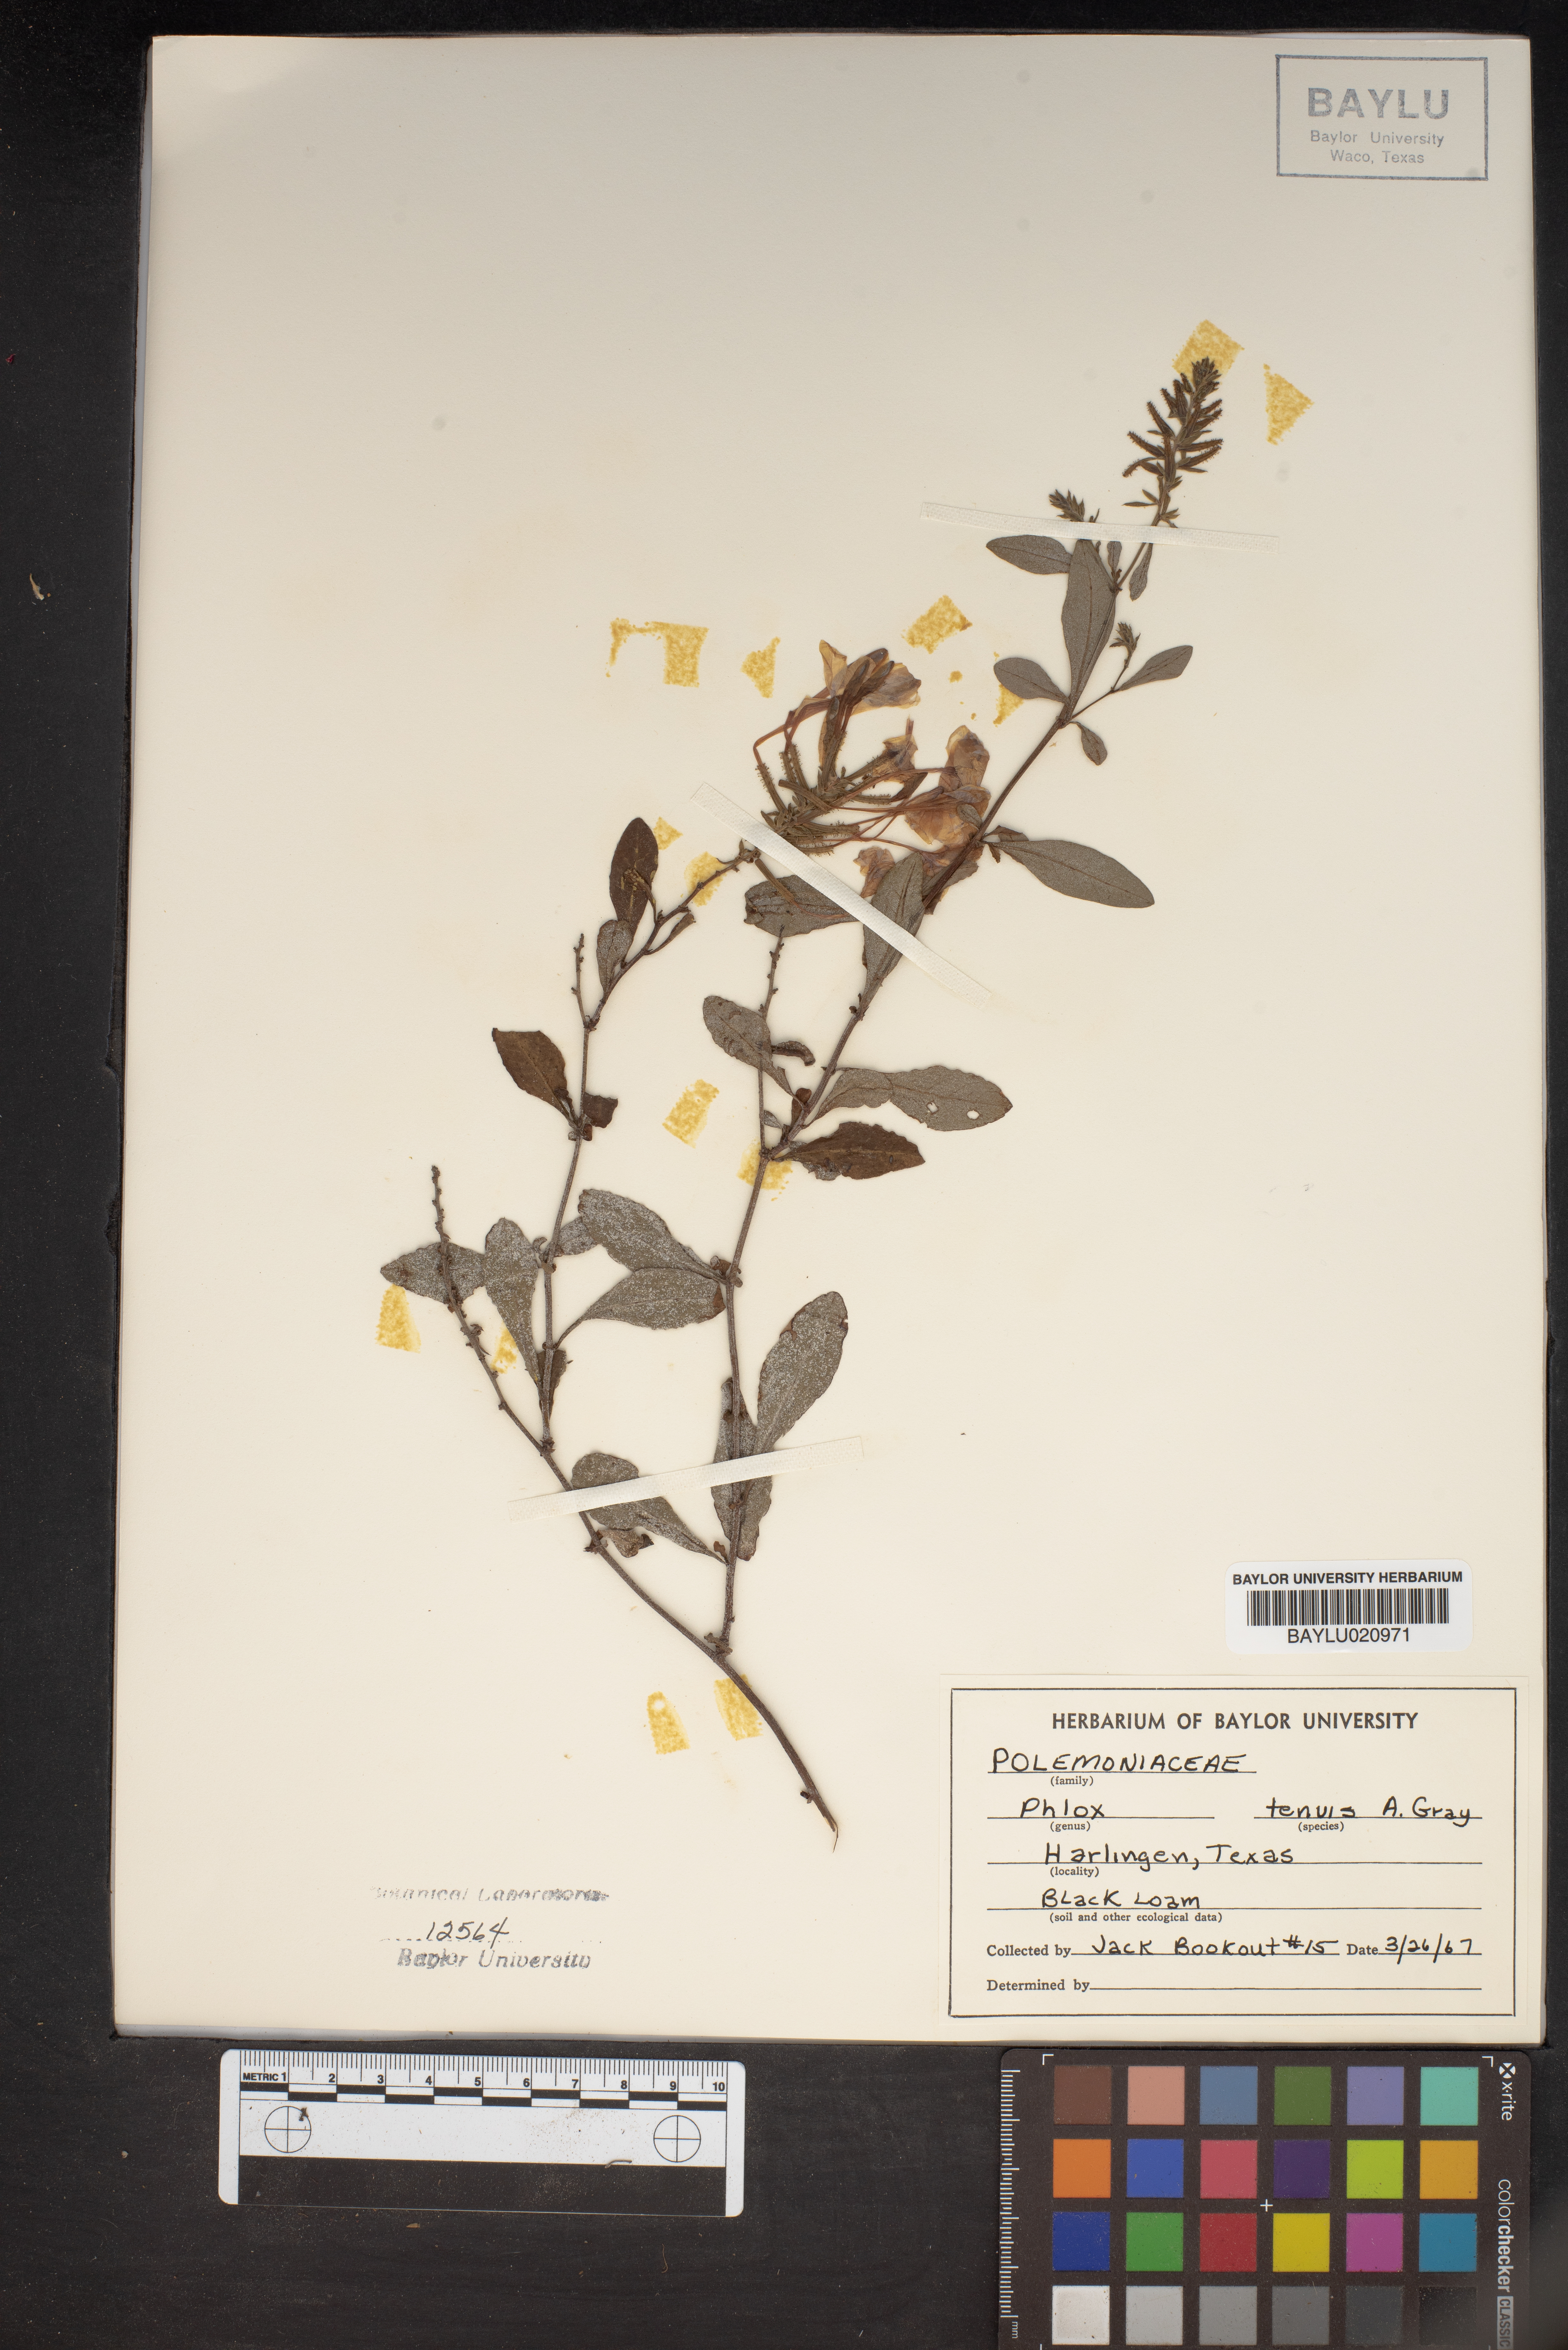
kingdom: Plantae
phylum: Tracheophyta
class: Magnoliopsida
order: Ericales
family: Polemoniaceae
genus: Phlox
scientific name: Phlox longifolia
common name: Longleaf phlox
